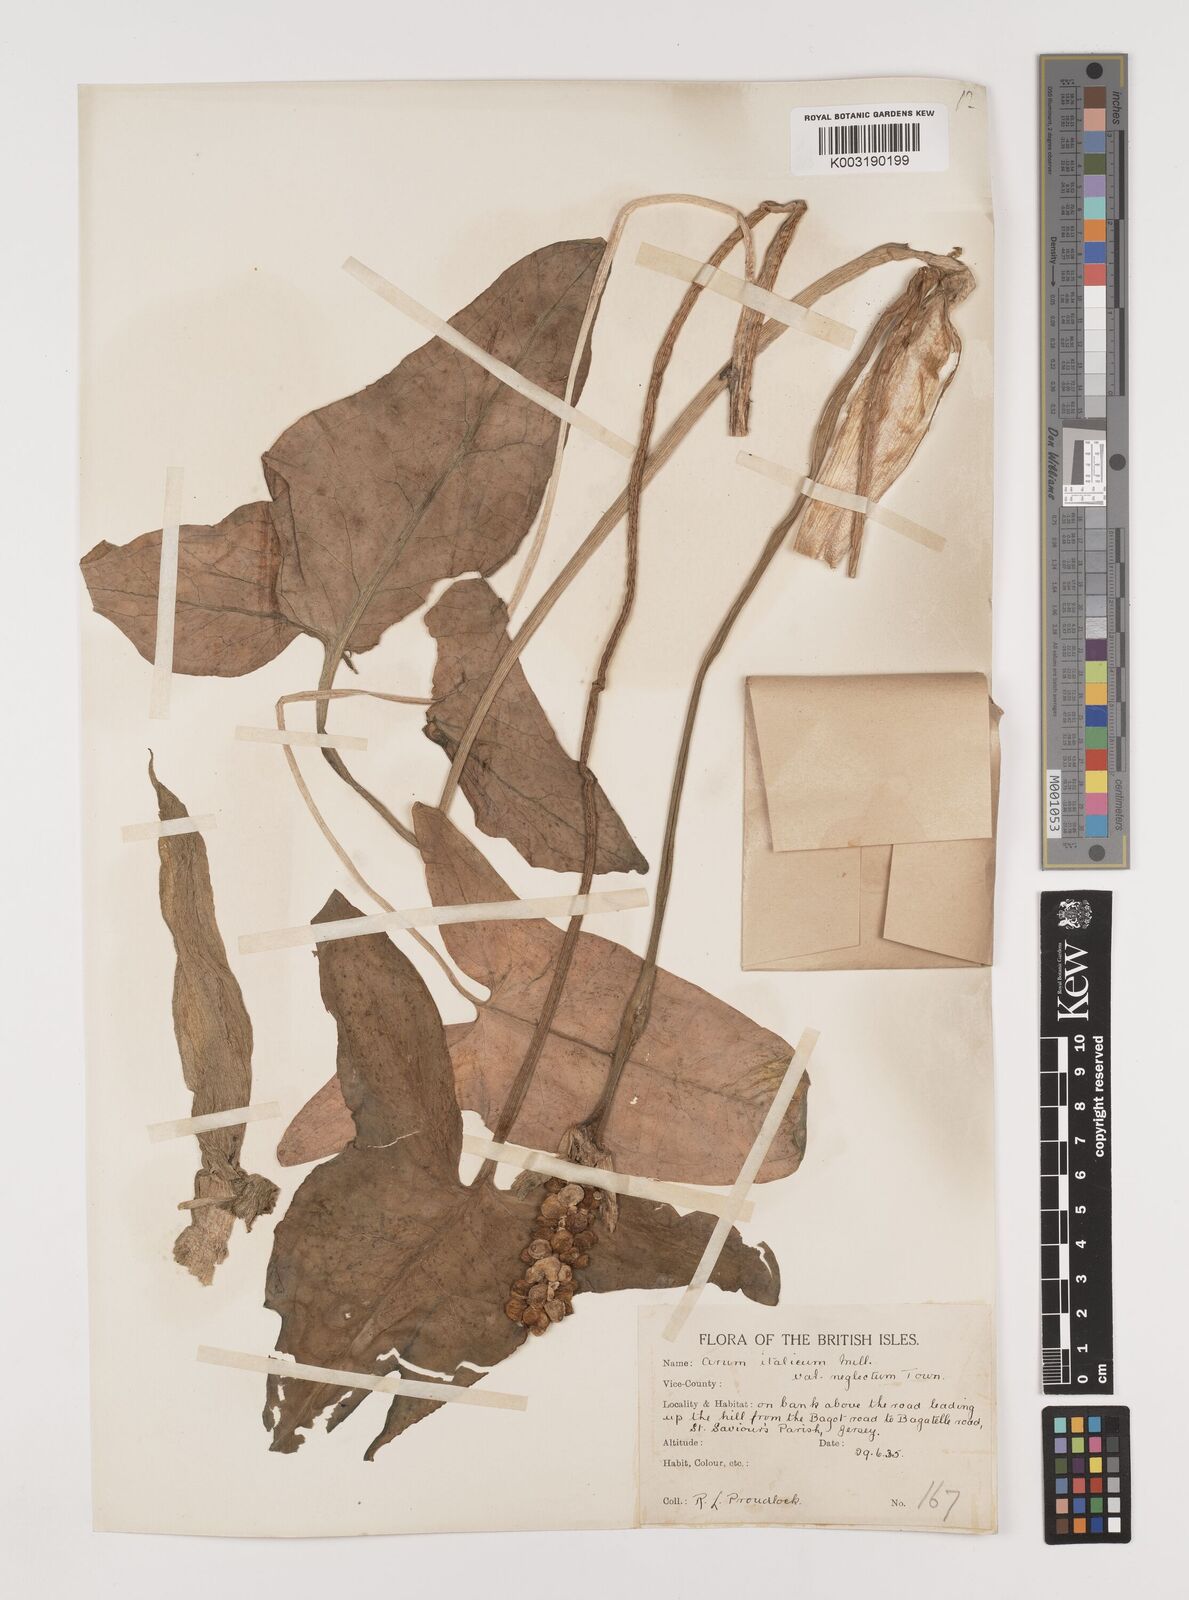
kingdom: Plantae
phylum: Tracheophyta
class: Liliopsida
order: Alismatales
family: Araceae
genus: Arum
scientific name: Arum italicum
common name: Italian lords-and-ladies
